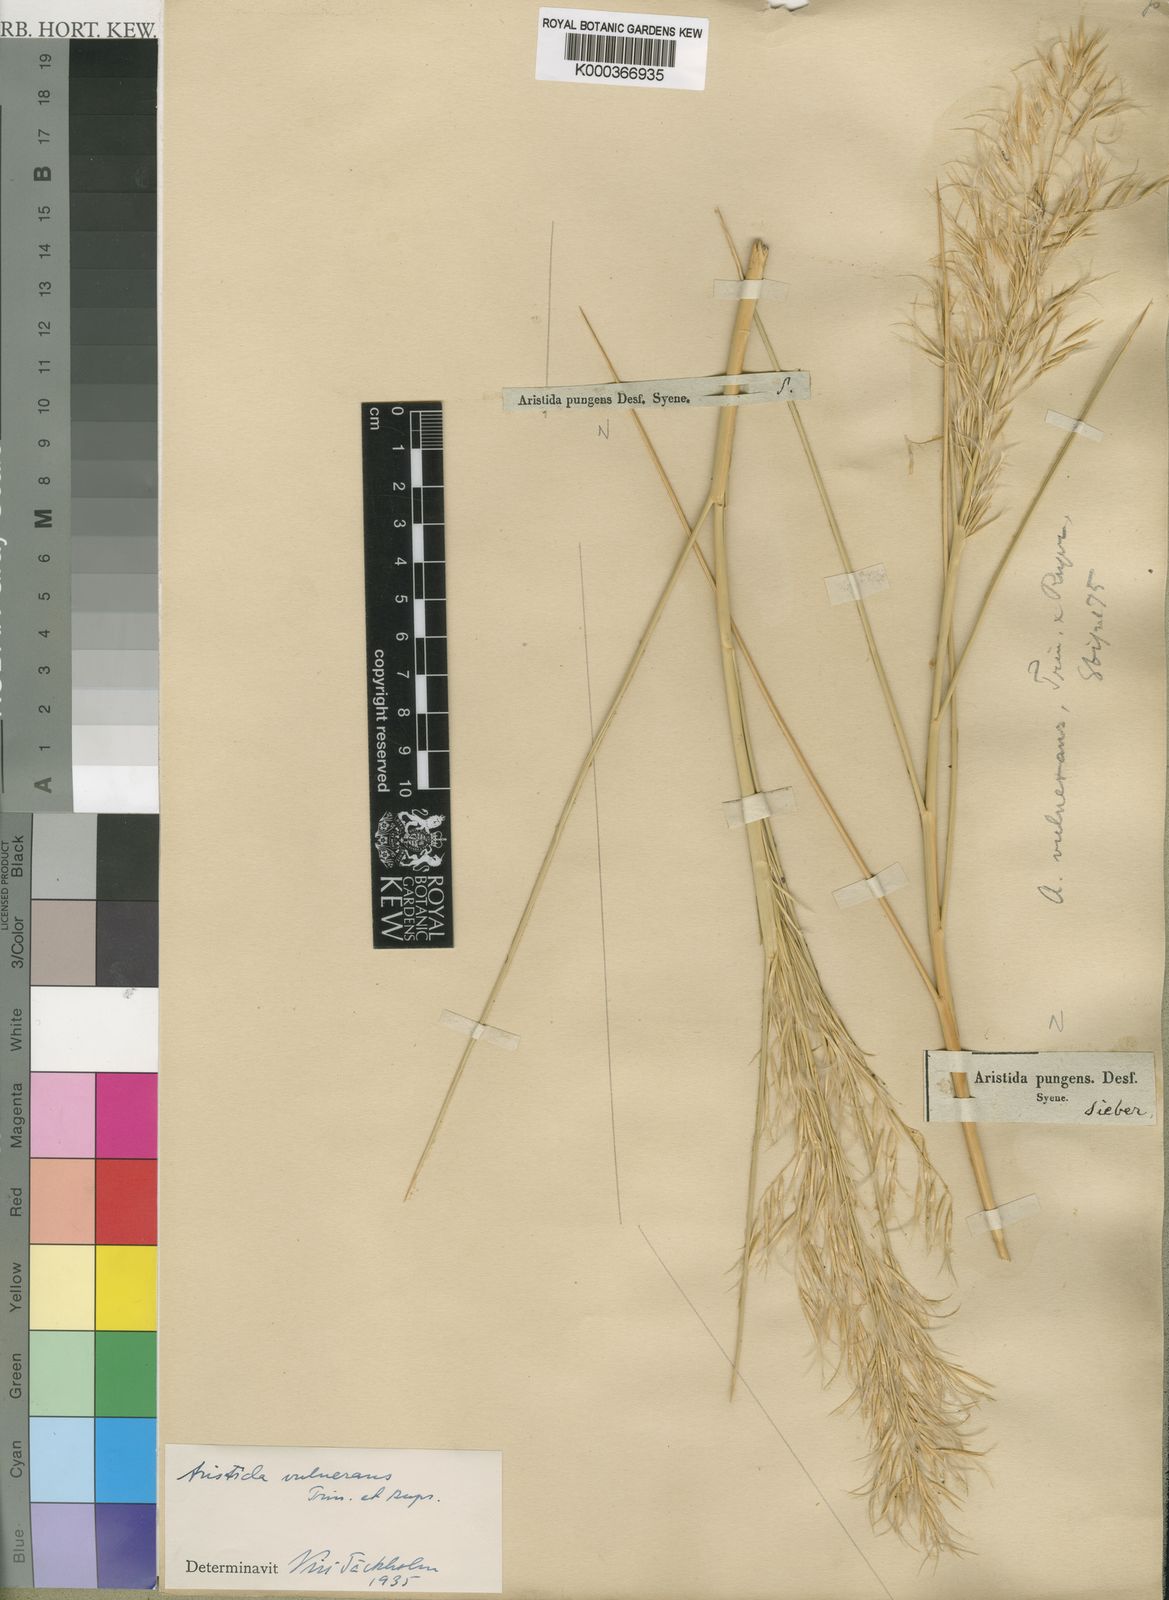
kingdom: Plantae
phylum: Tracheophyta
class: Liliopsida
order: Poales
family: Poaceae
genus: Stipagrostis
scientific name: Stipagrostis vulnerans
